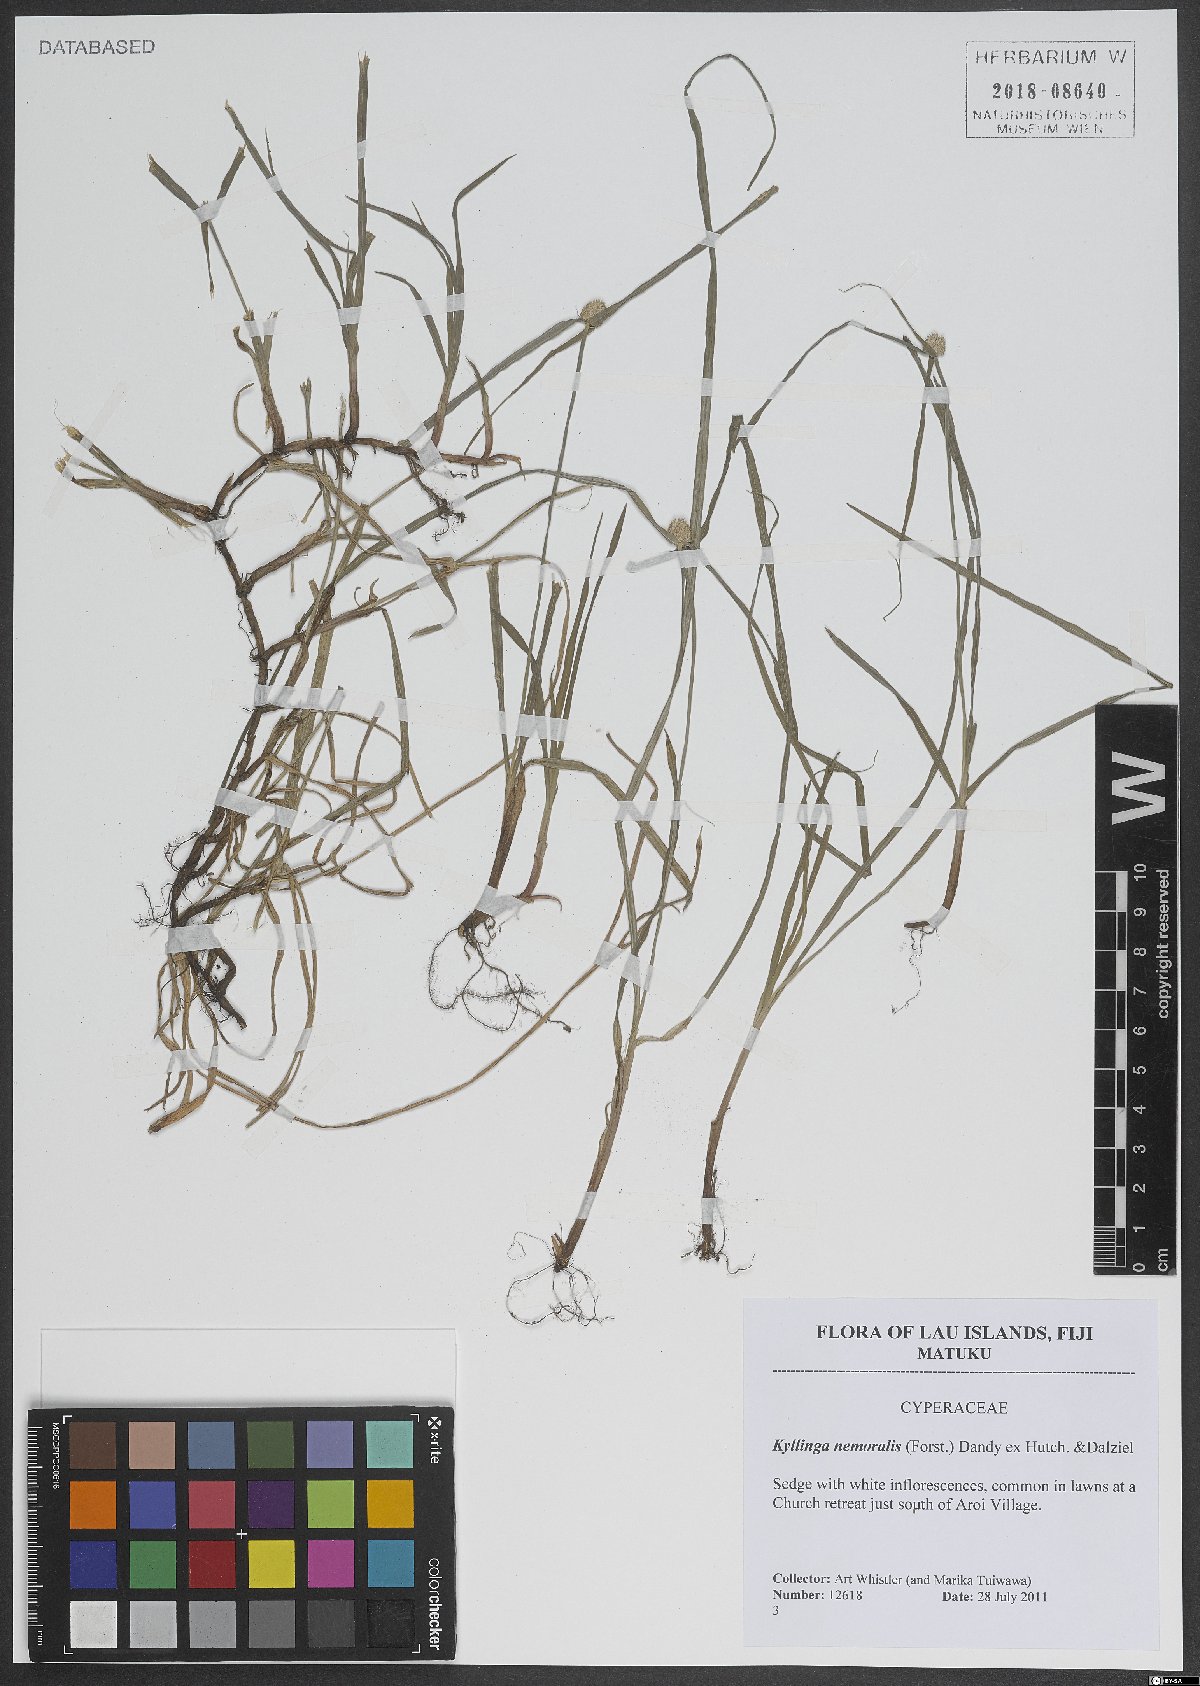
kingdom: Plantae
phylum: Tracheophyta
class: Liliopsida
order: Poales
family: Cyperaceae
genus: Cyperus
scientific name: Cyperus mindorensis
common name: Flatsedge
